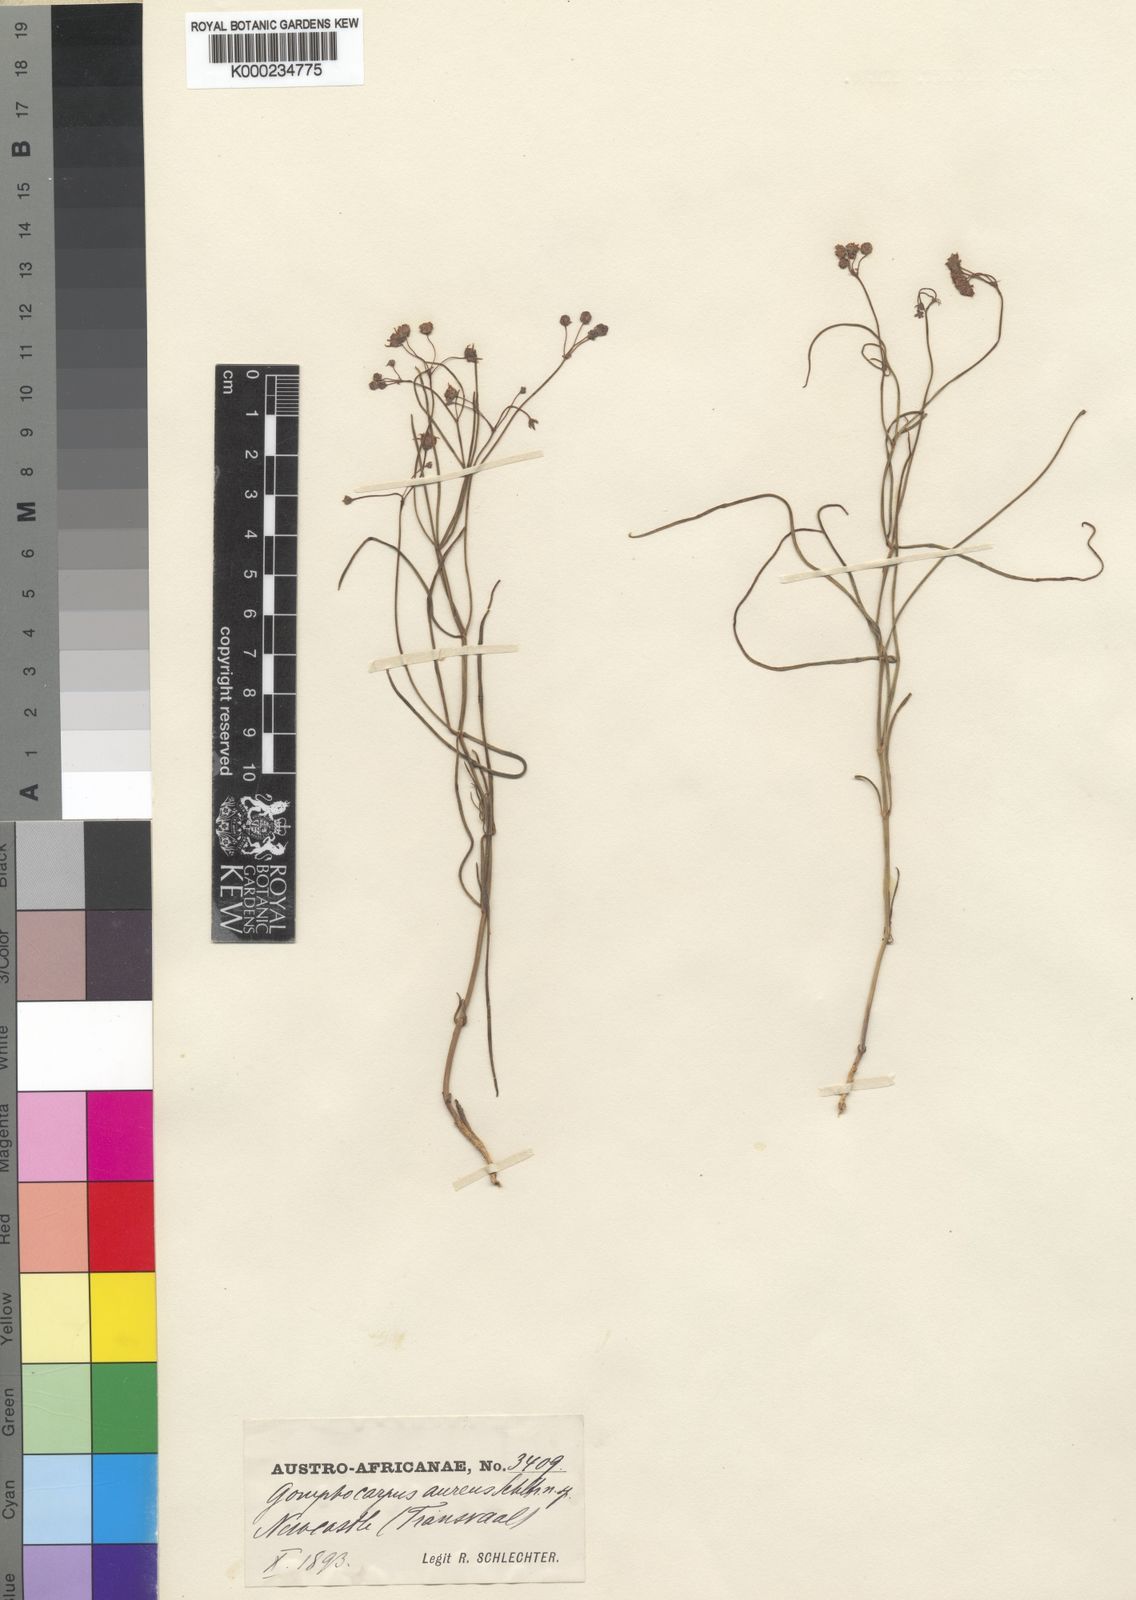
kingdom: Plantae
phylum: Tracheophyta
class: Magnoliopsida
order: Gentianales
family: Apocynaceae
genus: Asclepias
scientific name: Asclepias aurea
